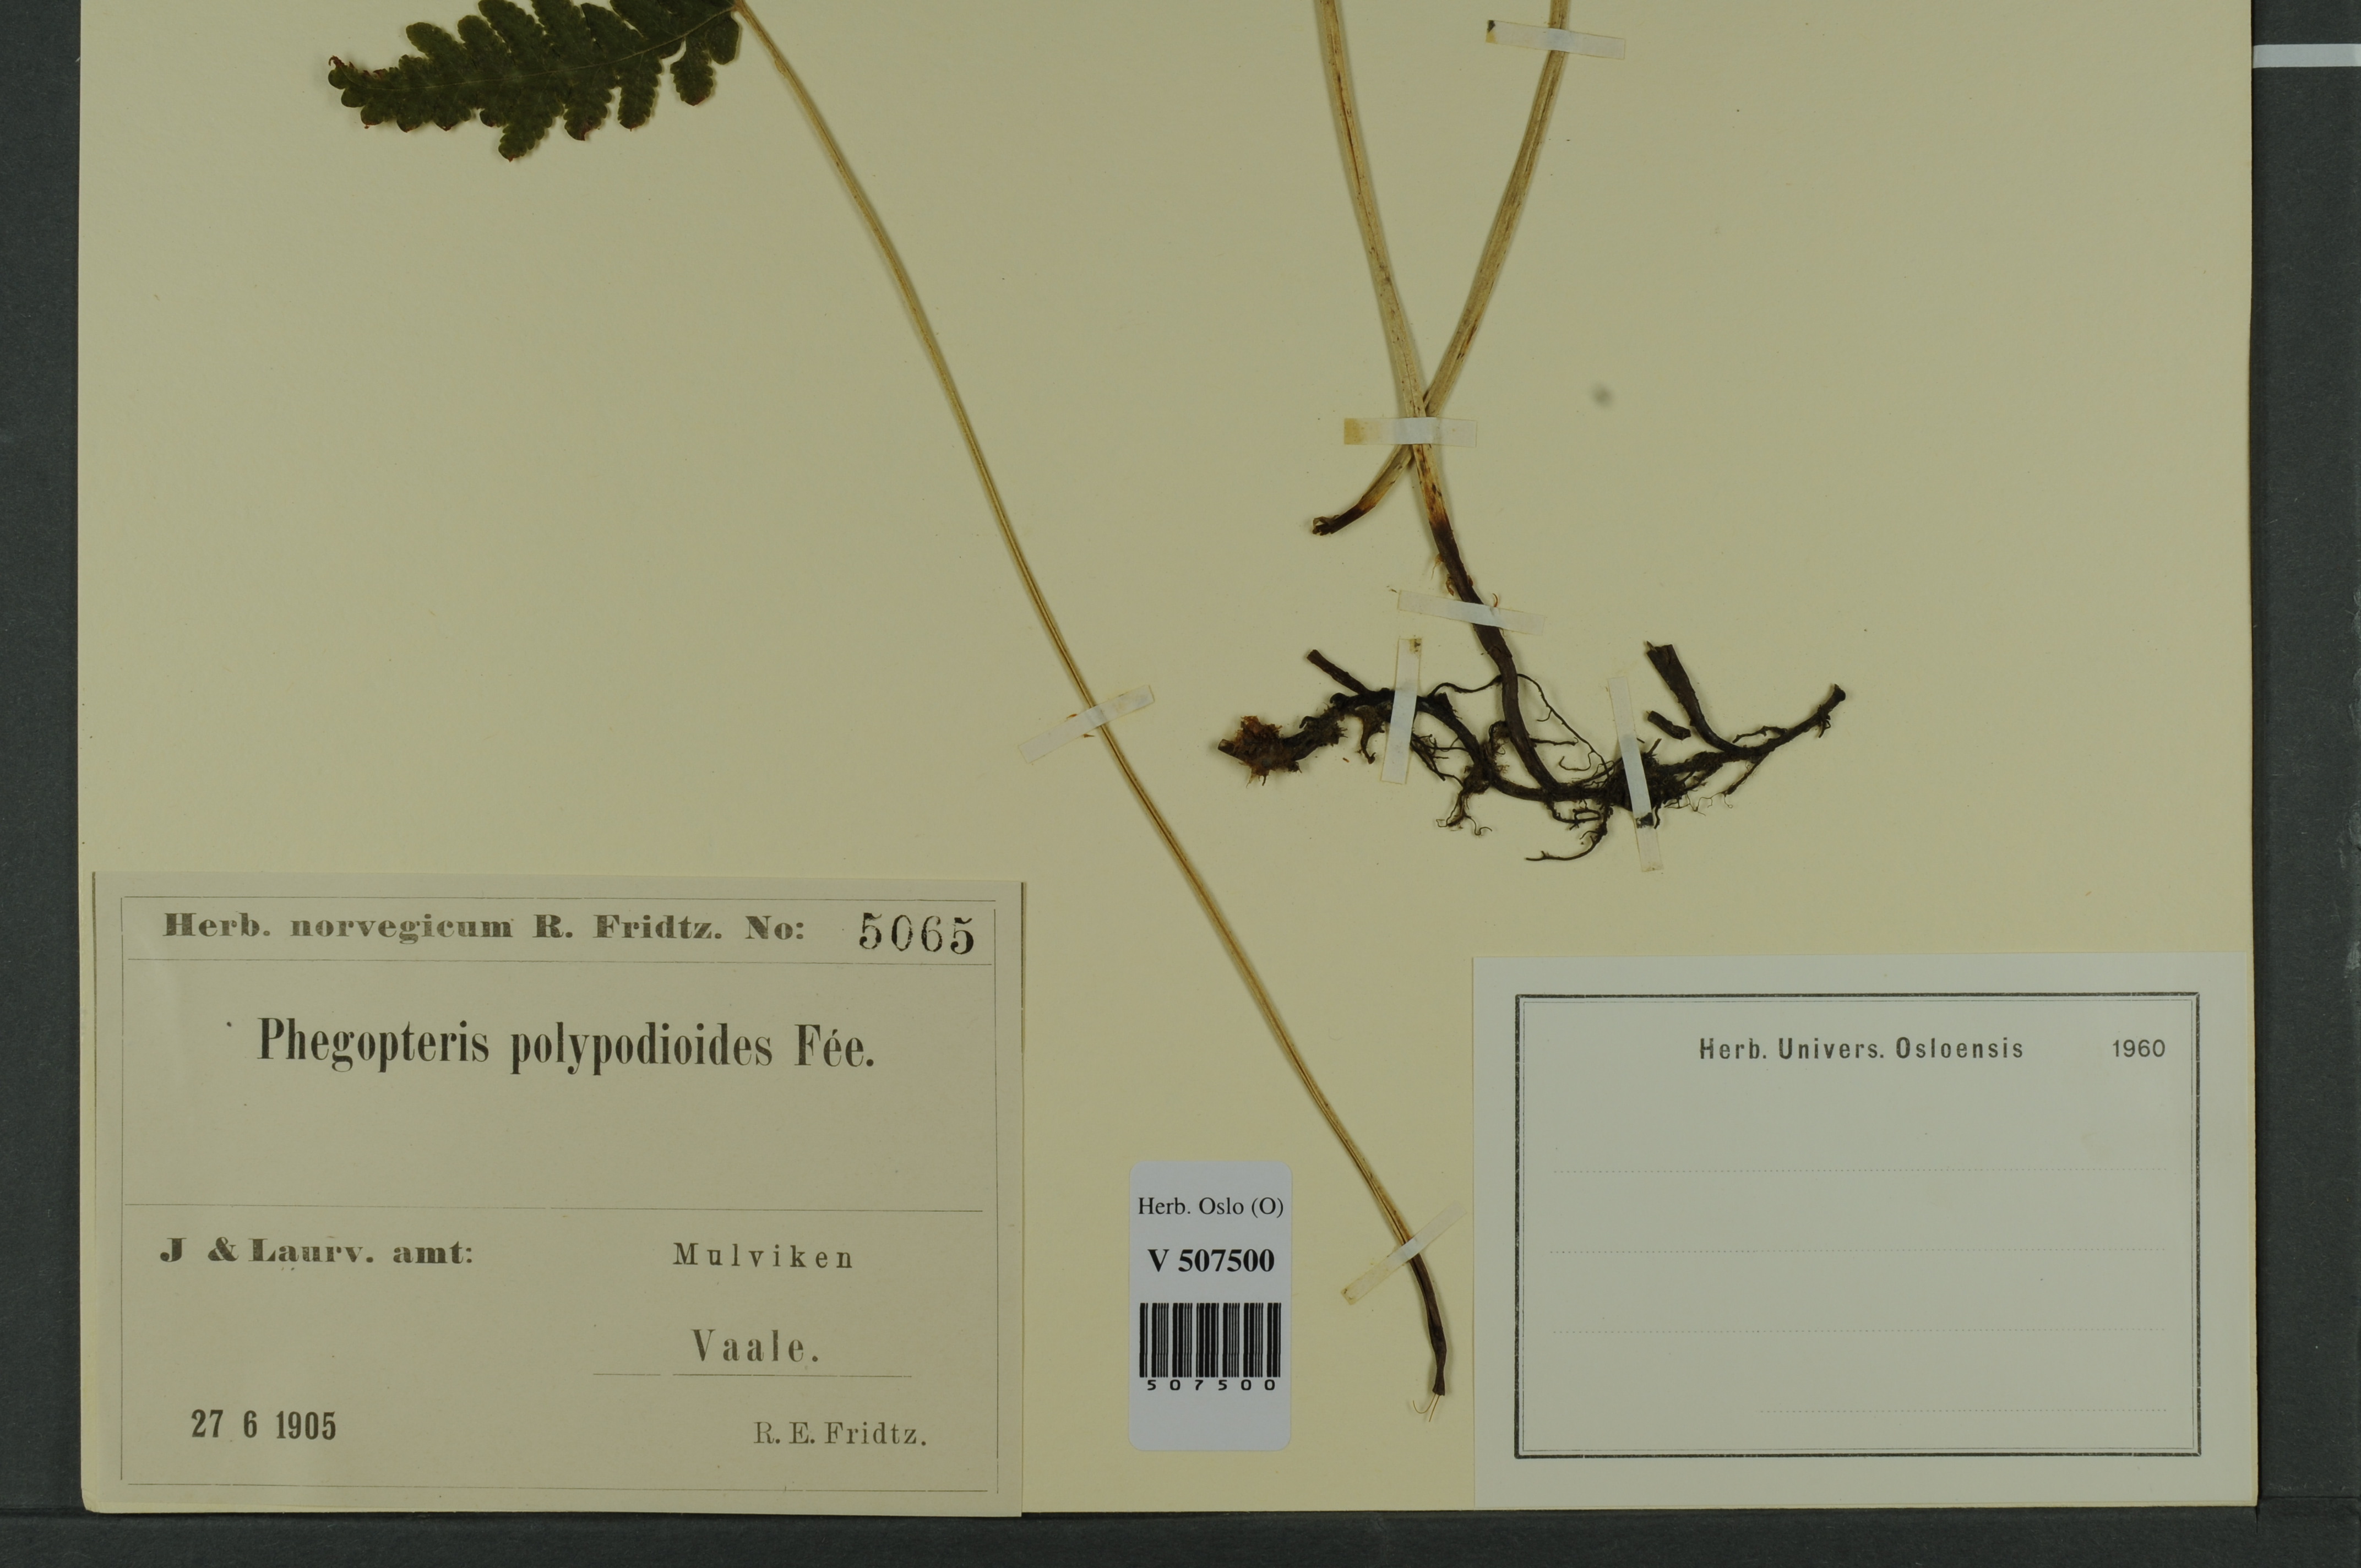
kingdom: Plantae
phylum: Tracheophyta
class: Polypodiopsida
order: Polypodiales
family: Thelypteridaceae
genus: Phegopteris
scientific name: Phegopteris connectilis
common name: Beech fern
